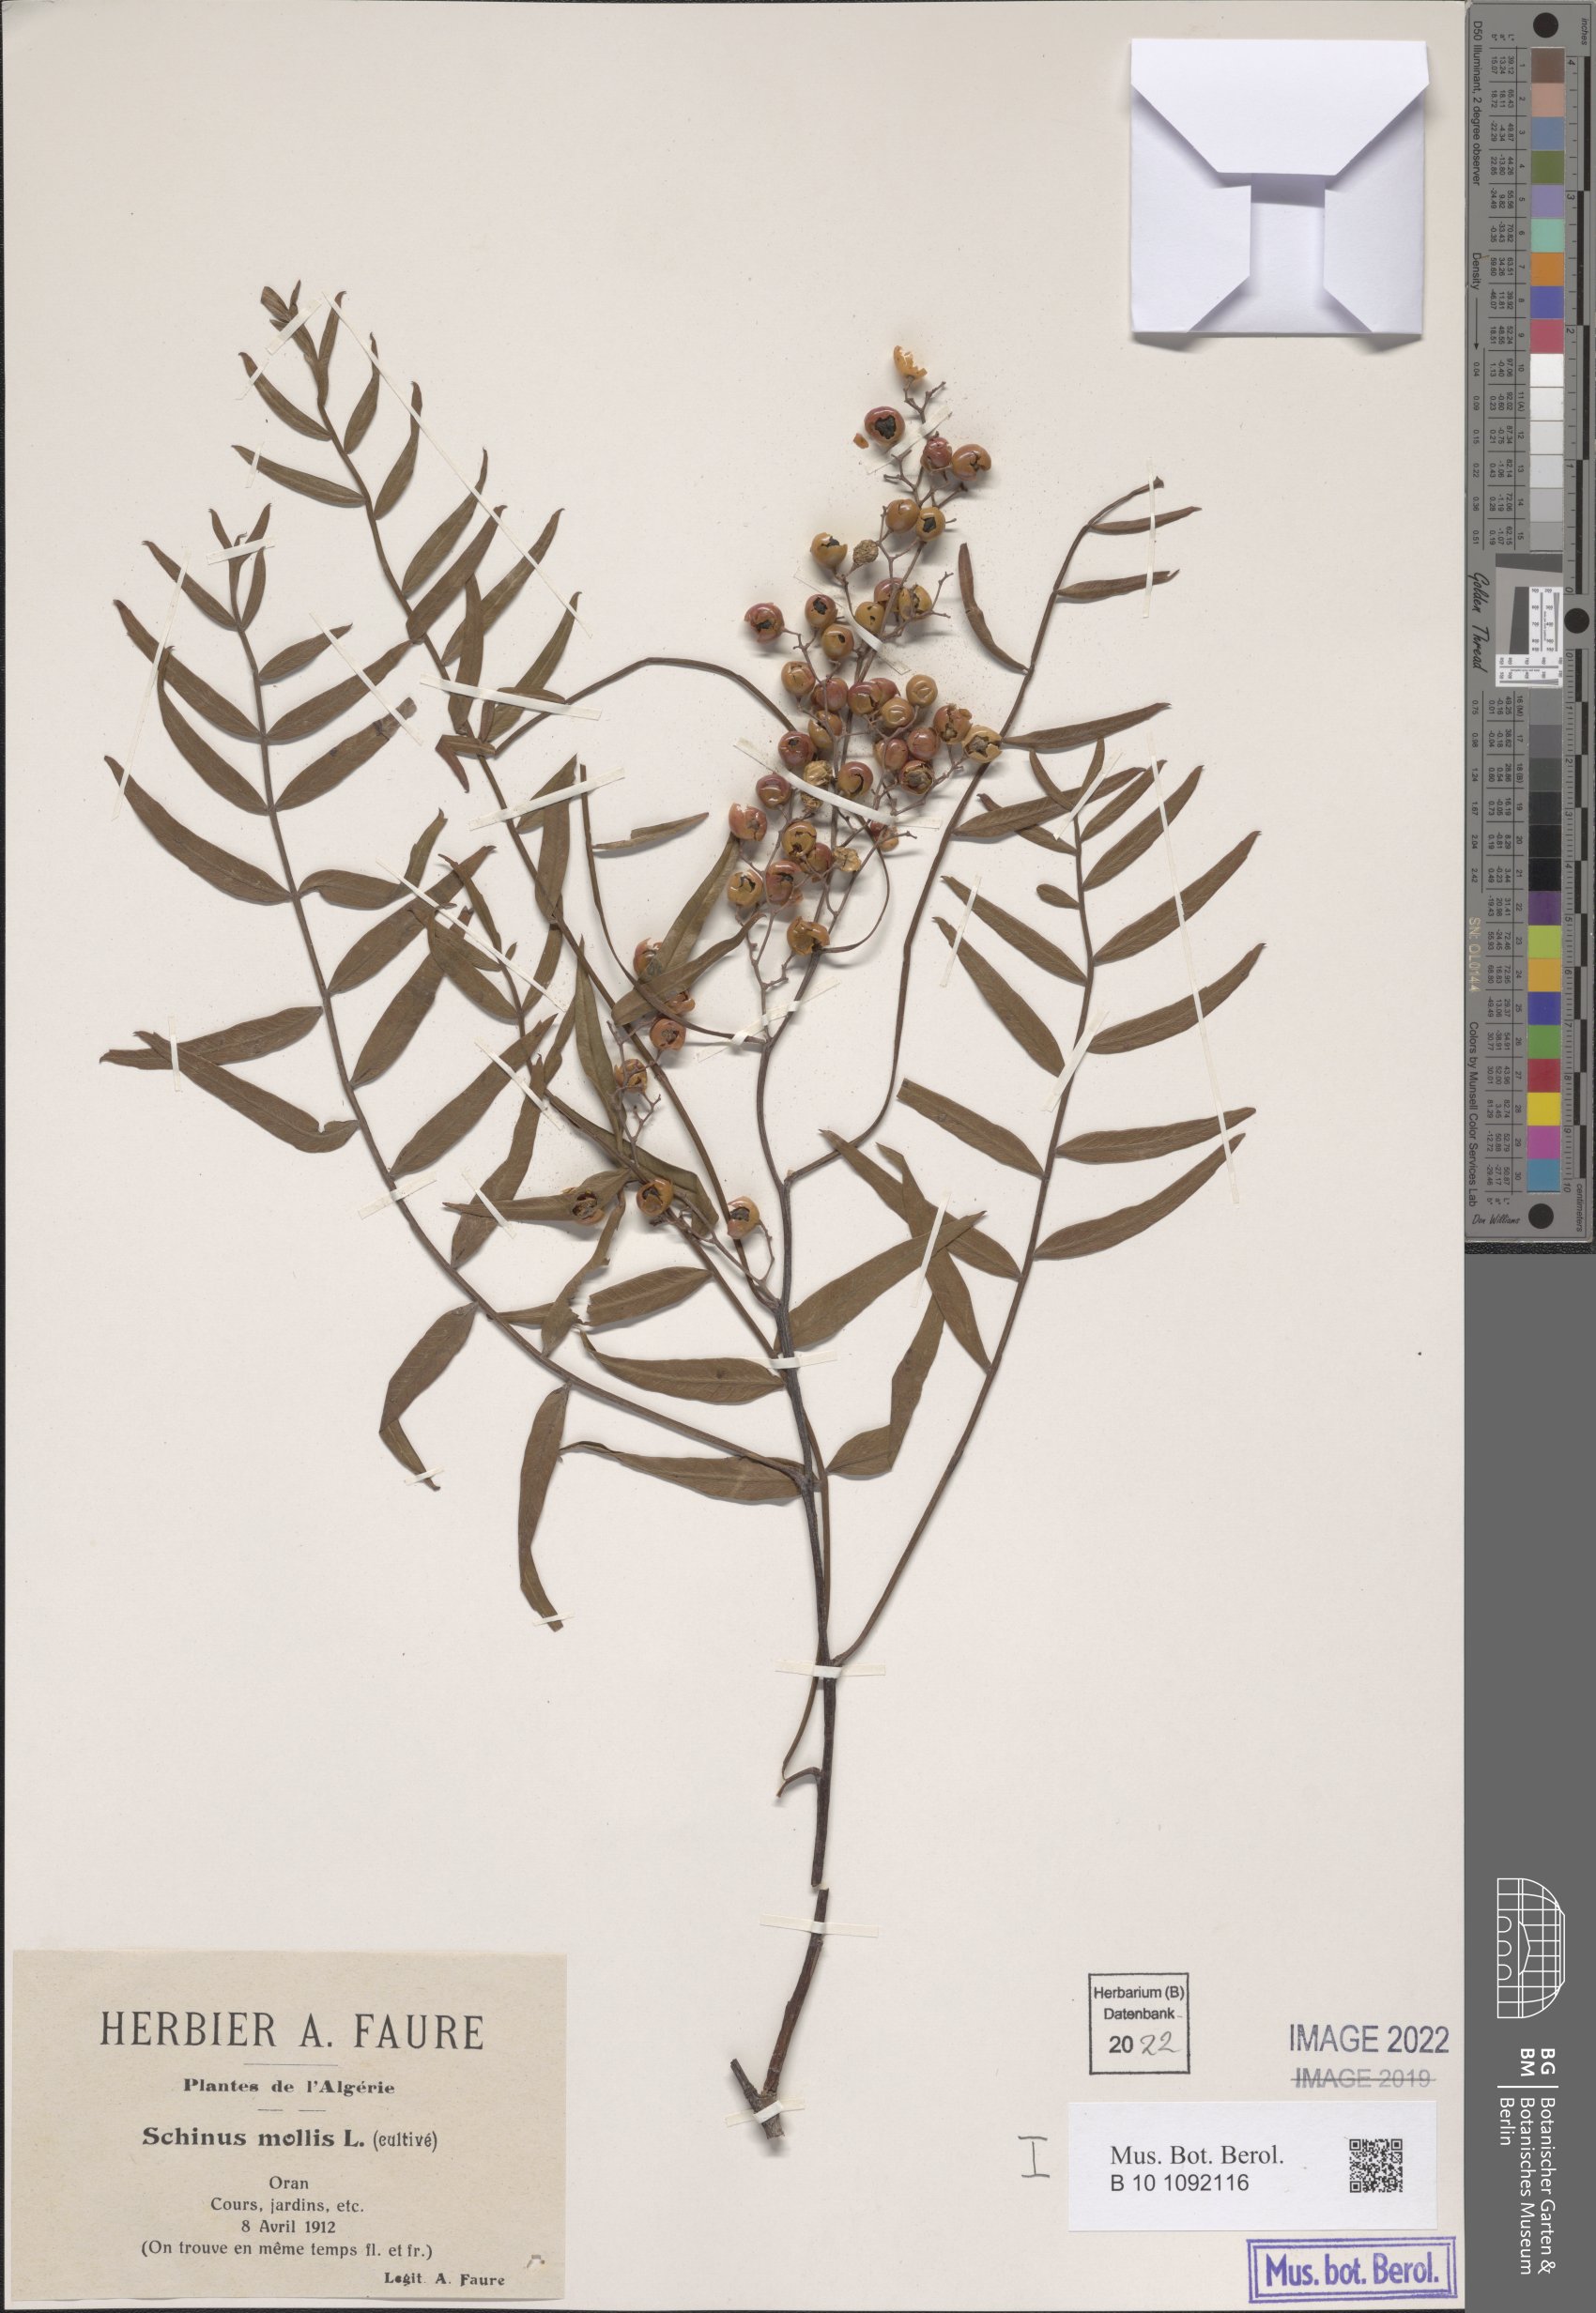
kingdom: Plantae
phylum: Tracheophyta
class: Magnoliopsida
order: Sapindales
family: Anacardiaceae
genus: Schinus
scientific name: Schinus molle
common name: Peruvian peppertree
